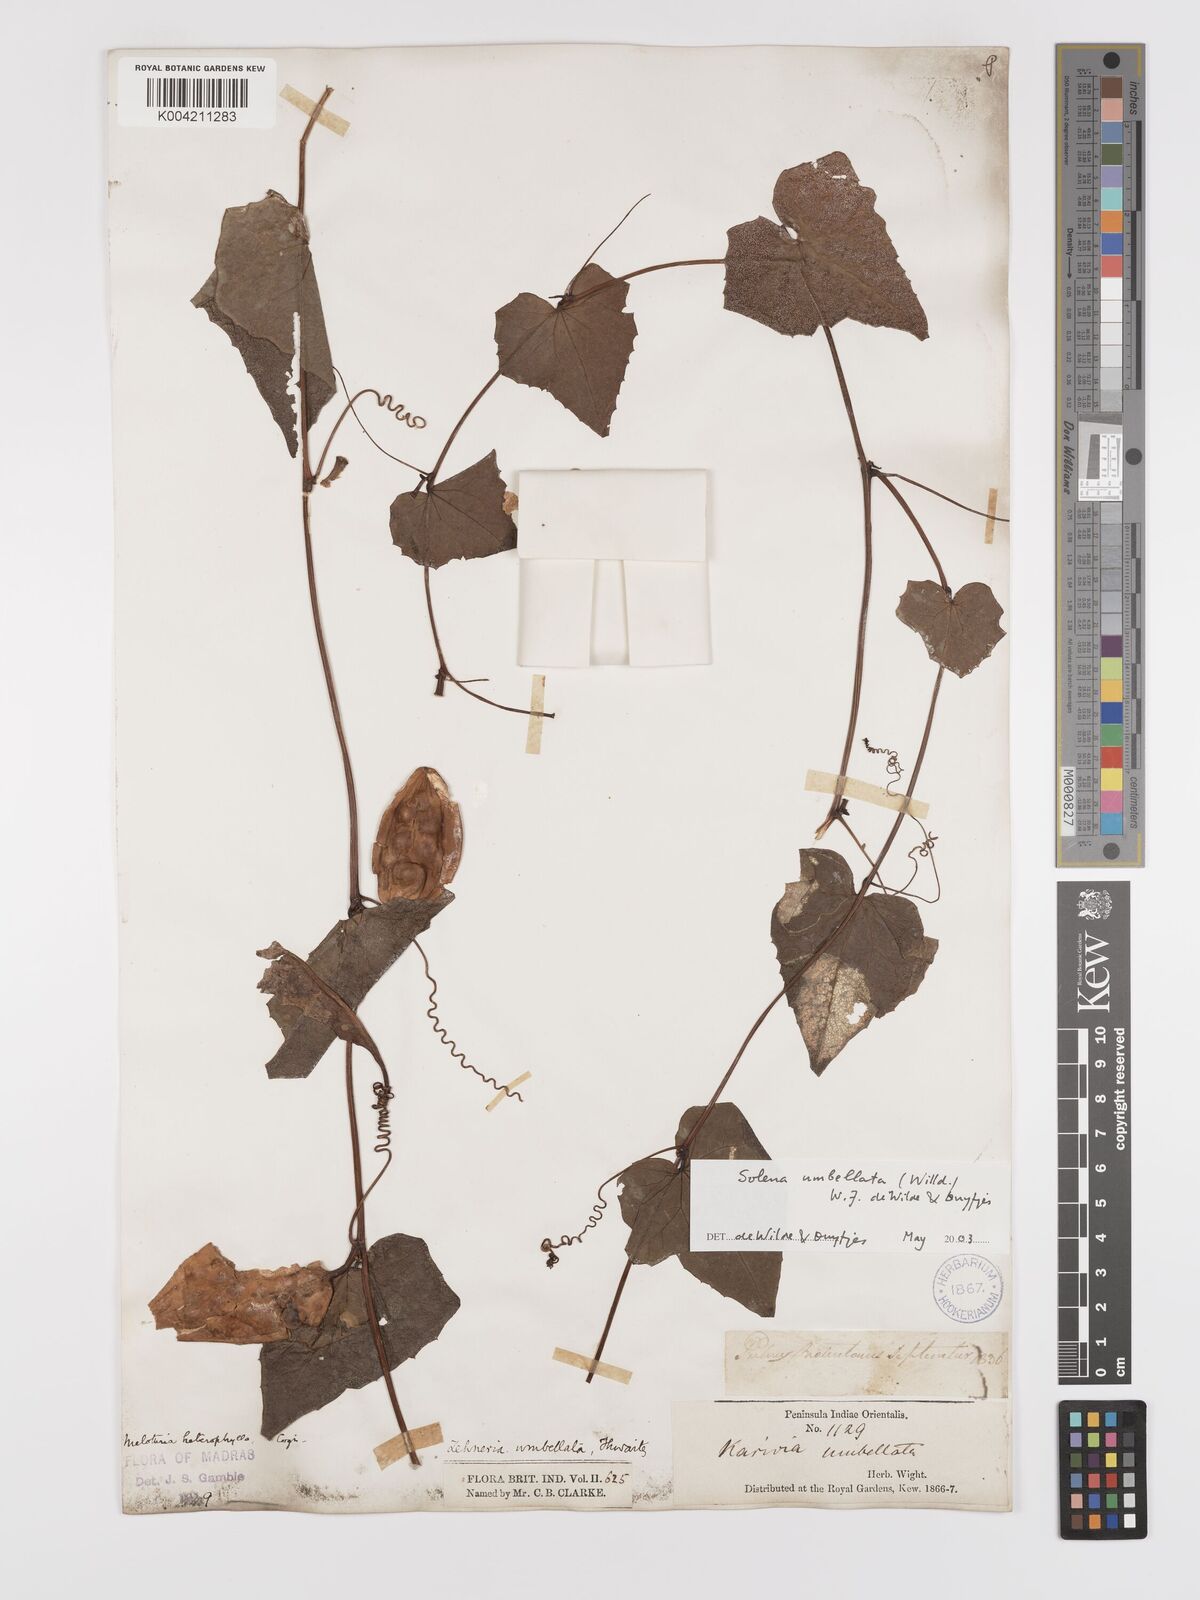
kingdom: Plantae
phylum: Tracheophyta
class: Magnoliopsida
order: Cucurbitales
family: Cucurbitaceae
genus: Solena
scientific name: Solena amplexicaulis
